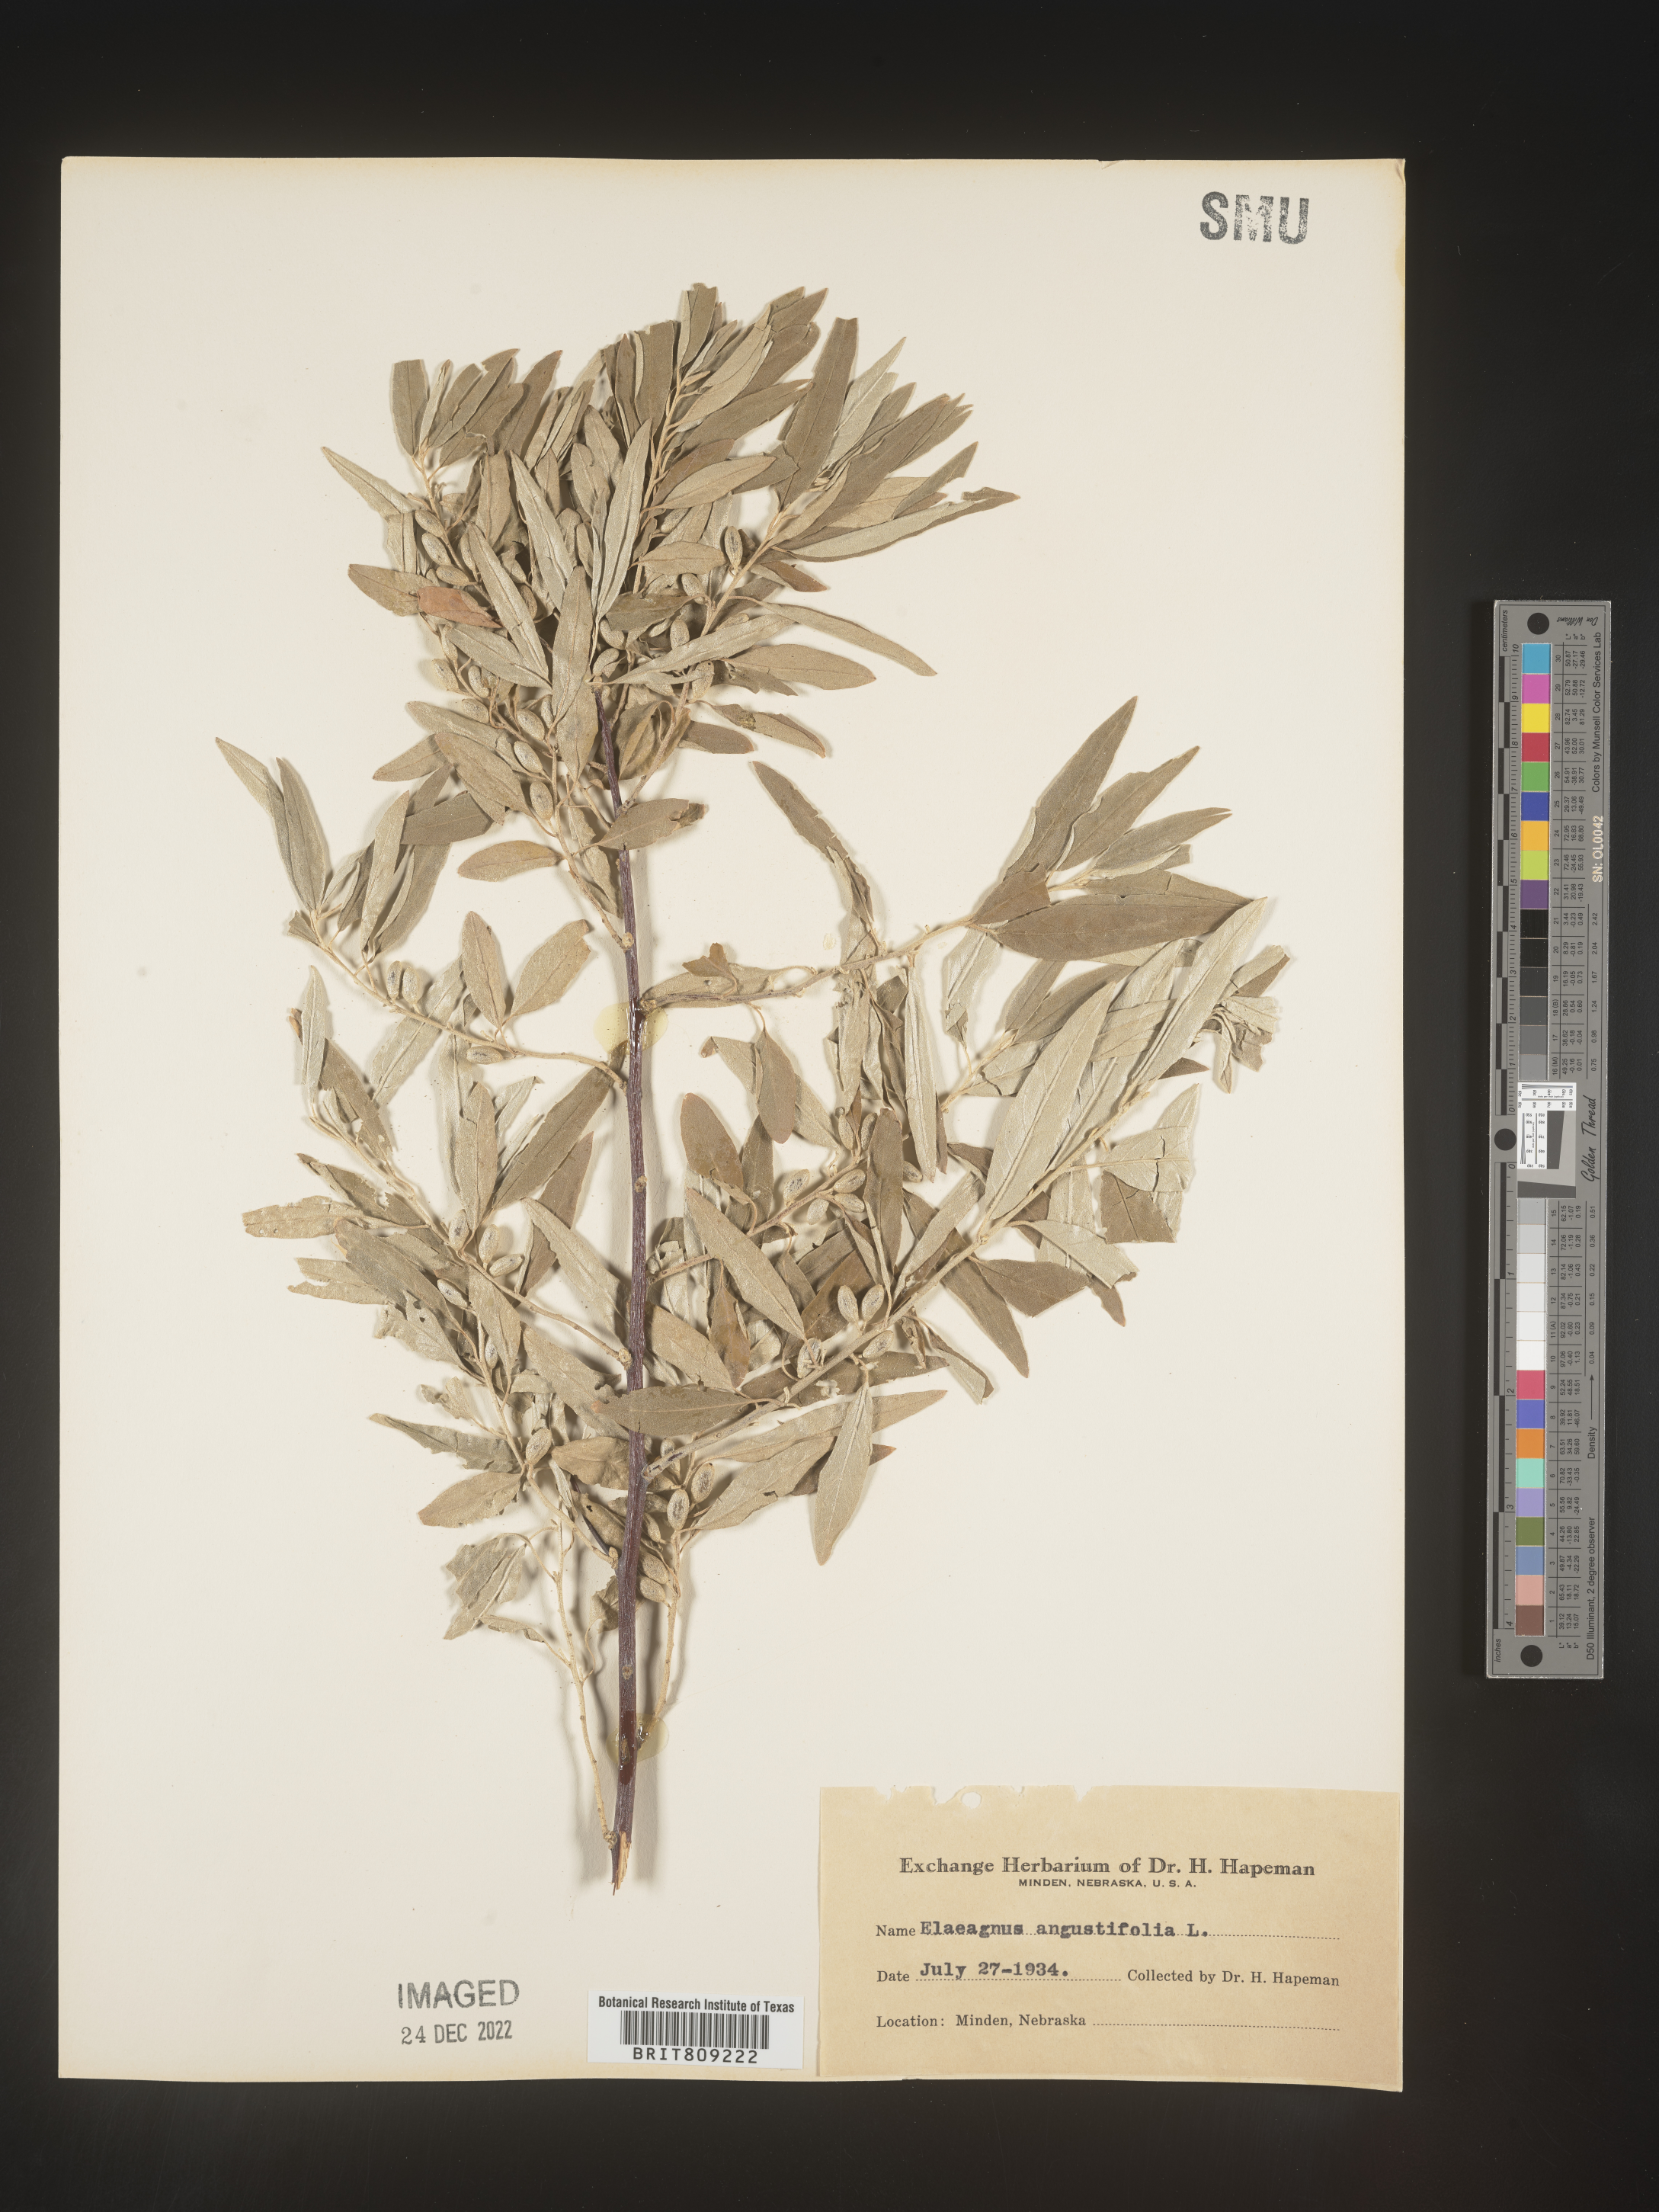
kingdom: Plantae
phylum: Tracheophyta
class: Magnoliopsida
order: Rosales
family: Elaeagnaceae
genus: Elaeagnus
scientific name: Elaeagnus angustifolia
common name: Russian olive
